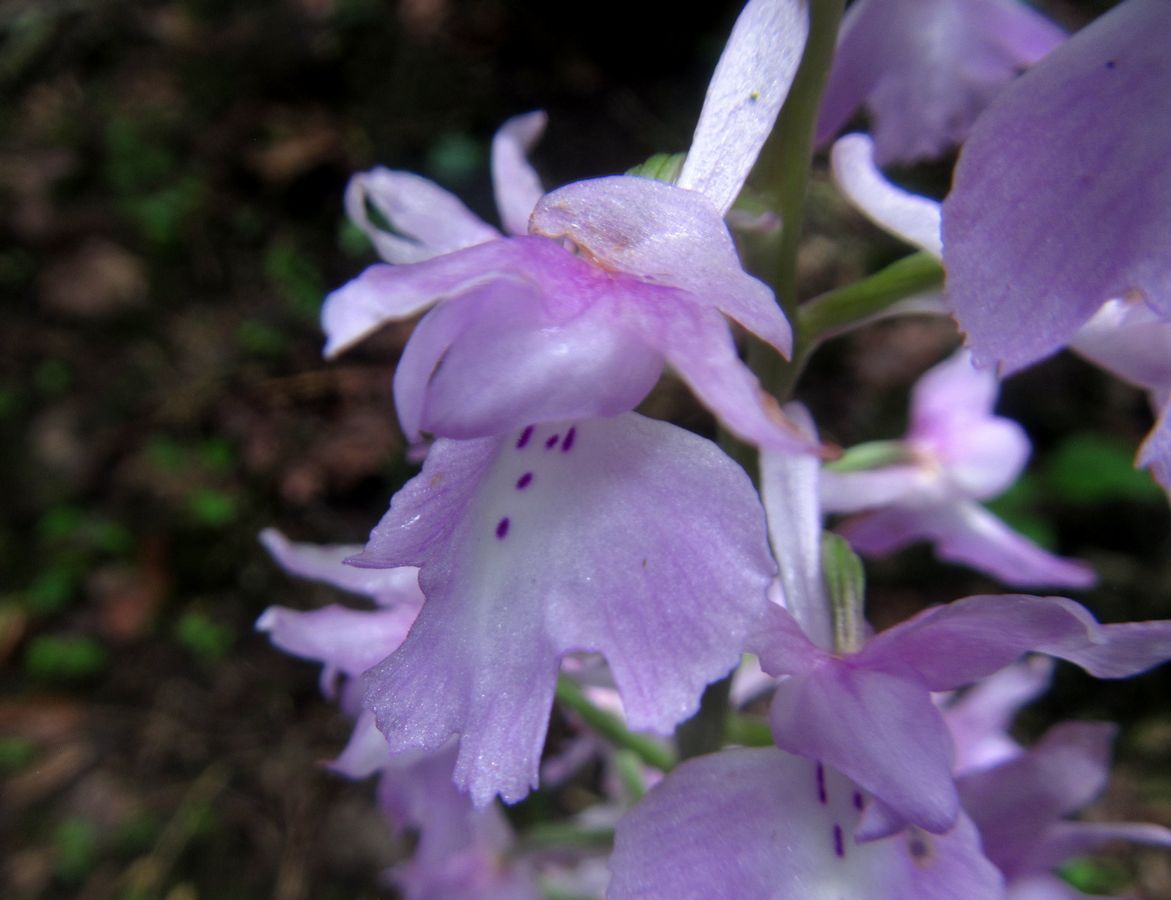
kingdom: Plantae
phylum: Tracheophyta
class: Liliopsida
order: Asparagales
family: Orchidaceae
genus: Orchis
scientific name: Orchis mascula
